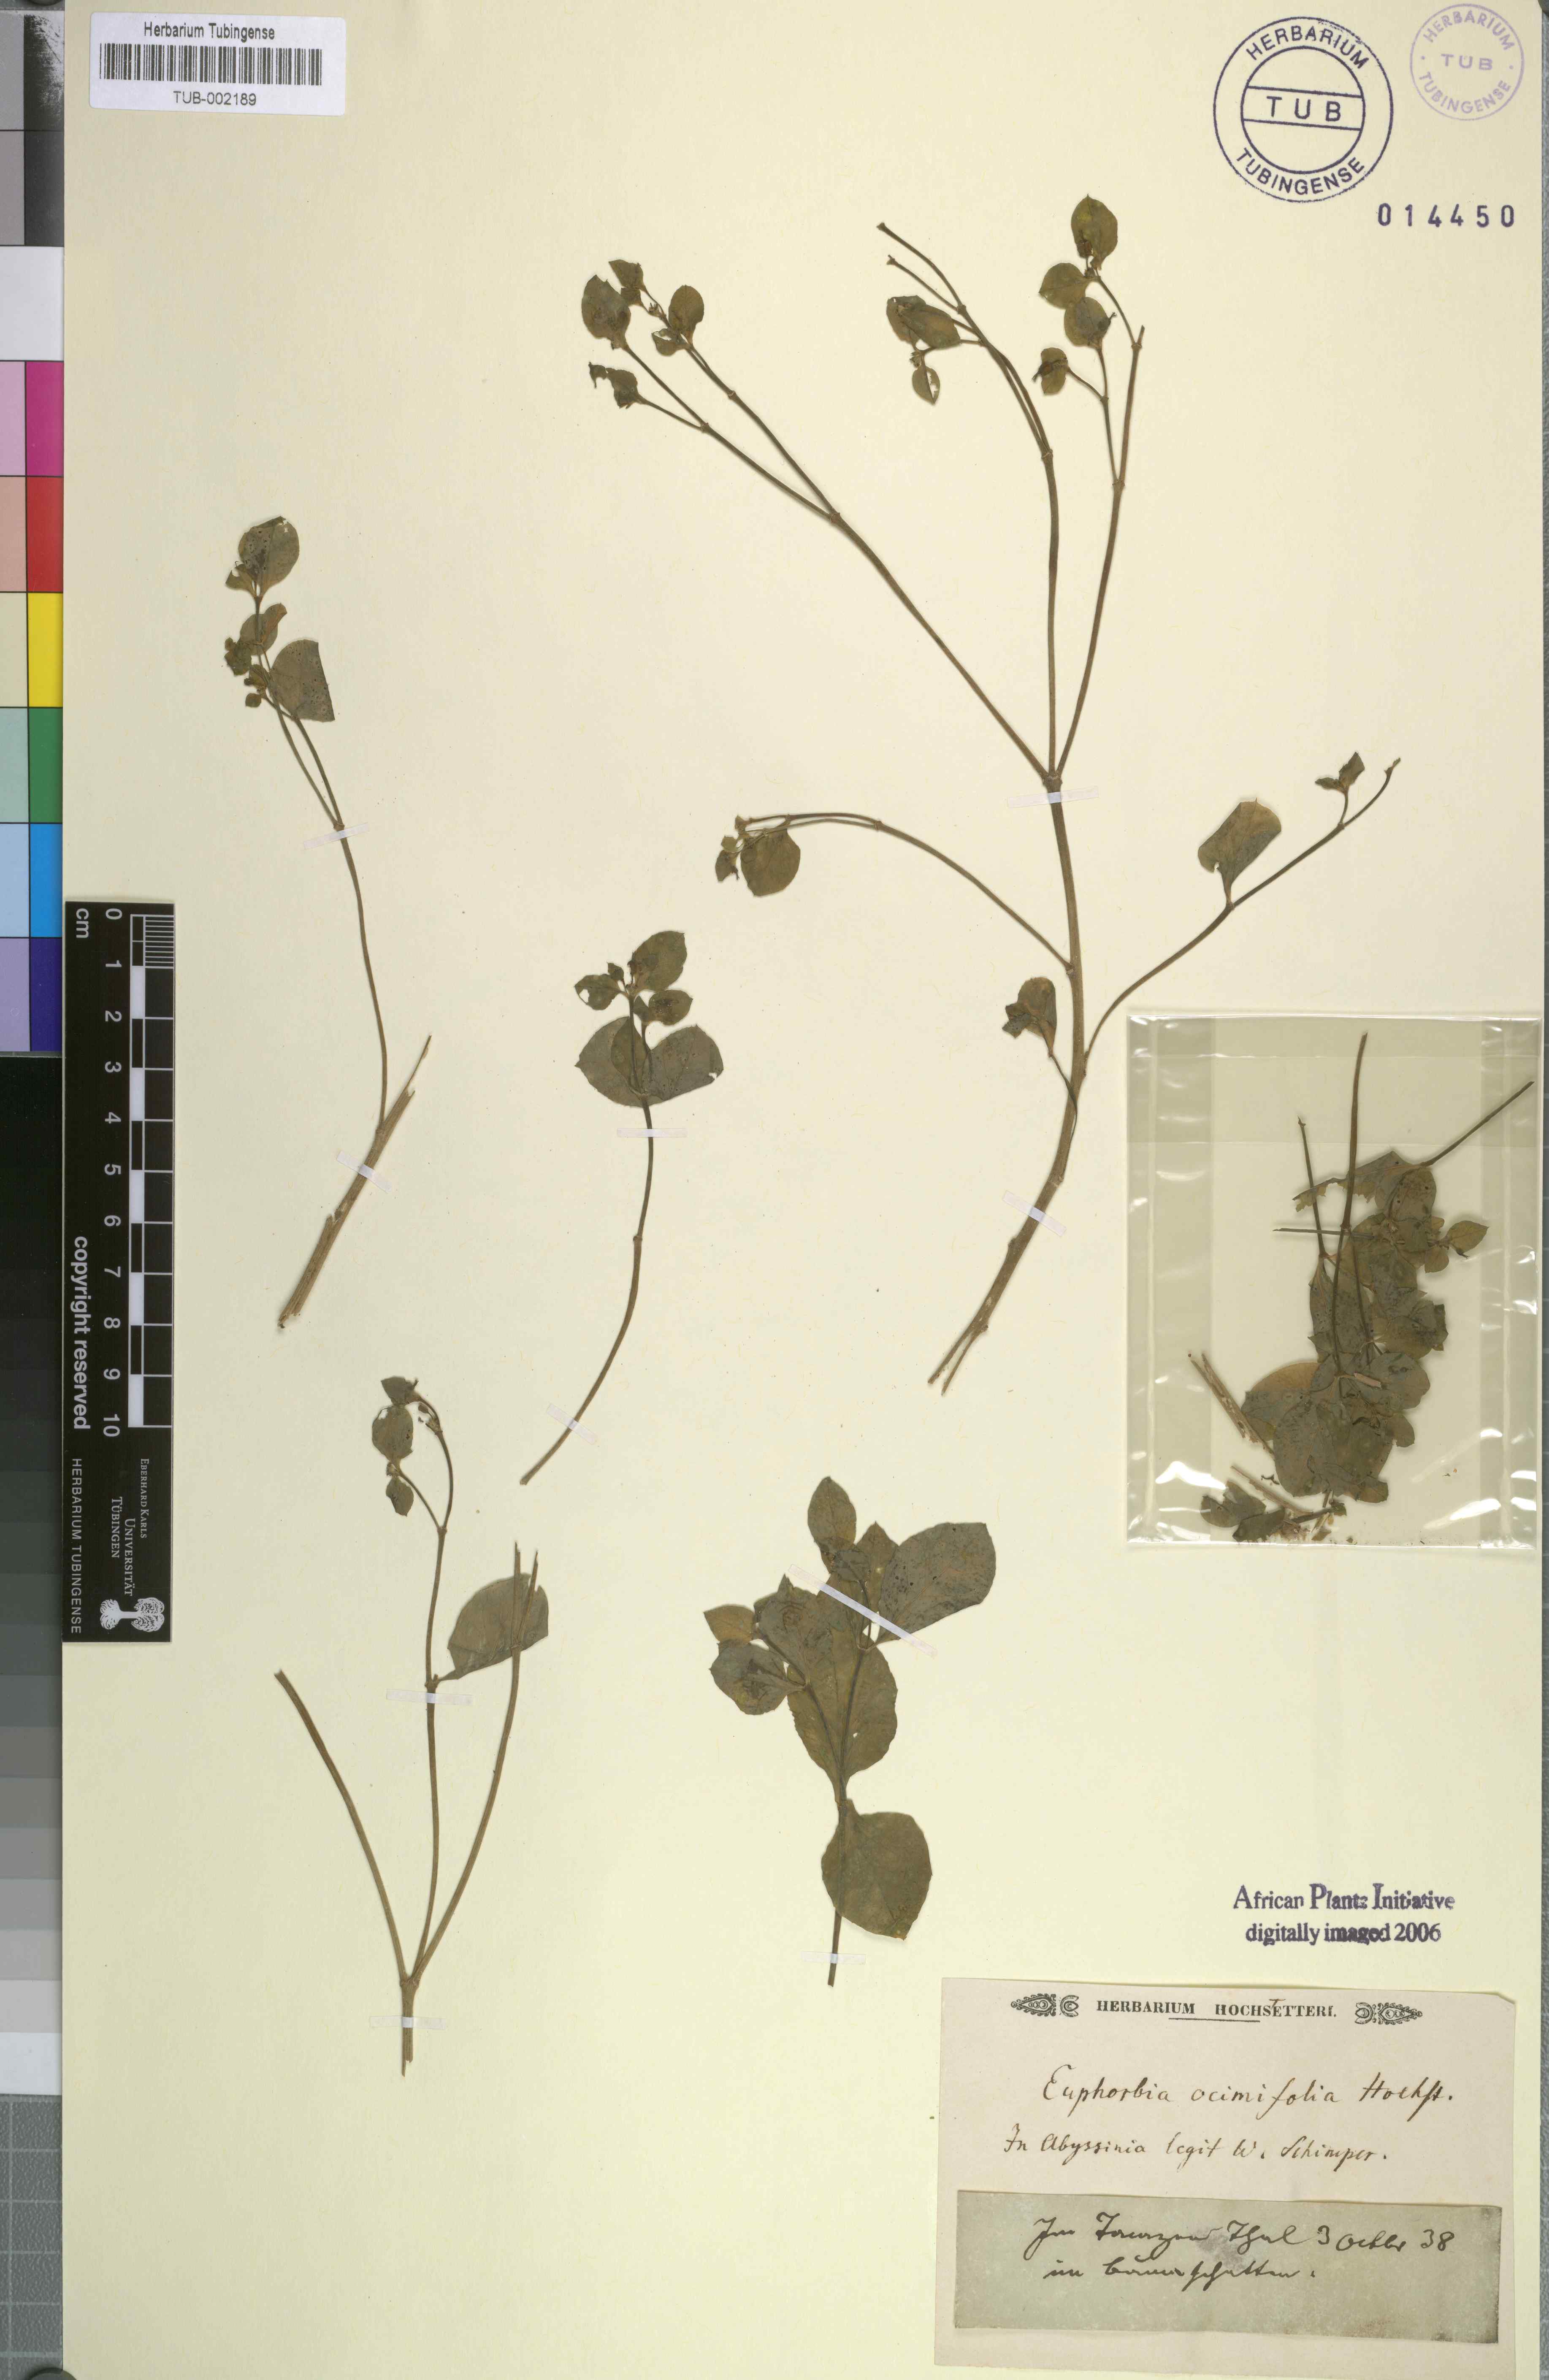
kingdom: Plantae
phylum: Tracheophyta
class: Magnoliopsida
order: Malpighiales
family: Euphorbiaceae
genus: Euphorbia
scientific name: Euphorbia
